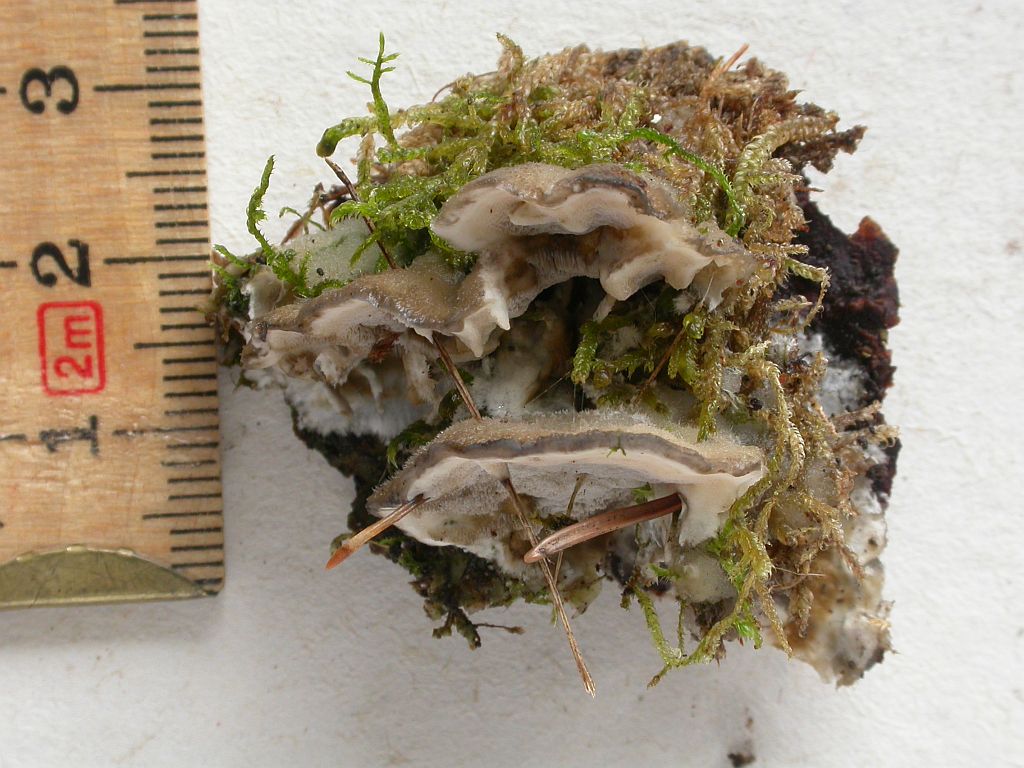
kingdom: Fungi
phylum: Basidiomycota
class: Agaricomycetes
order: Polyporales
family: Phanerochaetaceae
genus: Bjerkandera
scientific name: Bjerkandera adusta
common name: sveden sodporesvamp
